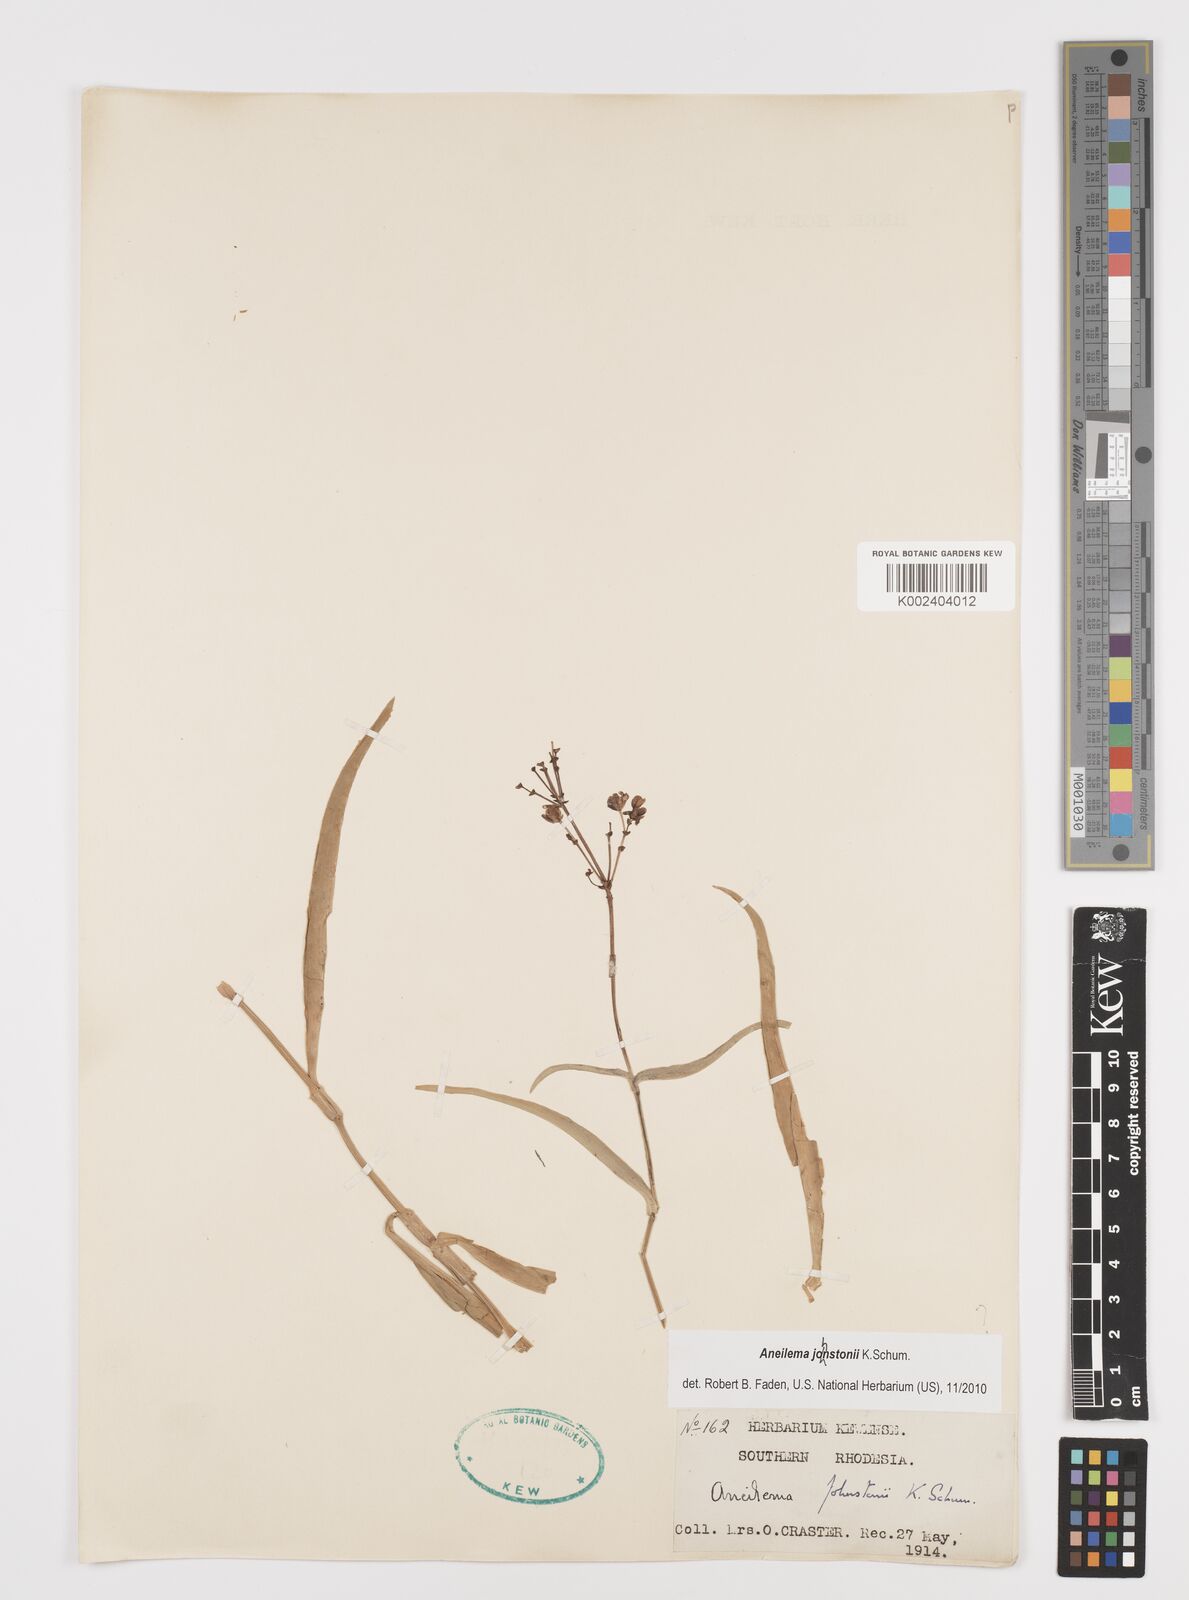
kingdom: Plantae
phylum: Tracheophyta
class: Liliopsida
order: Commelinales
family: Commelinaceae
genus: Aneilema
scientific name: Aneilema johnstonii
